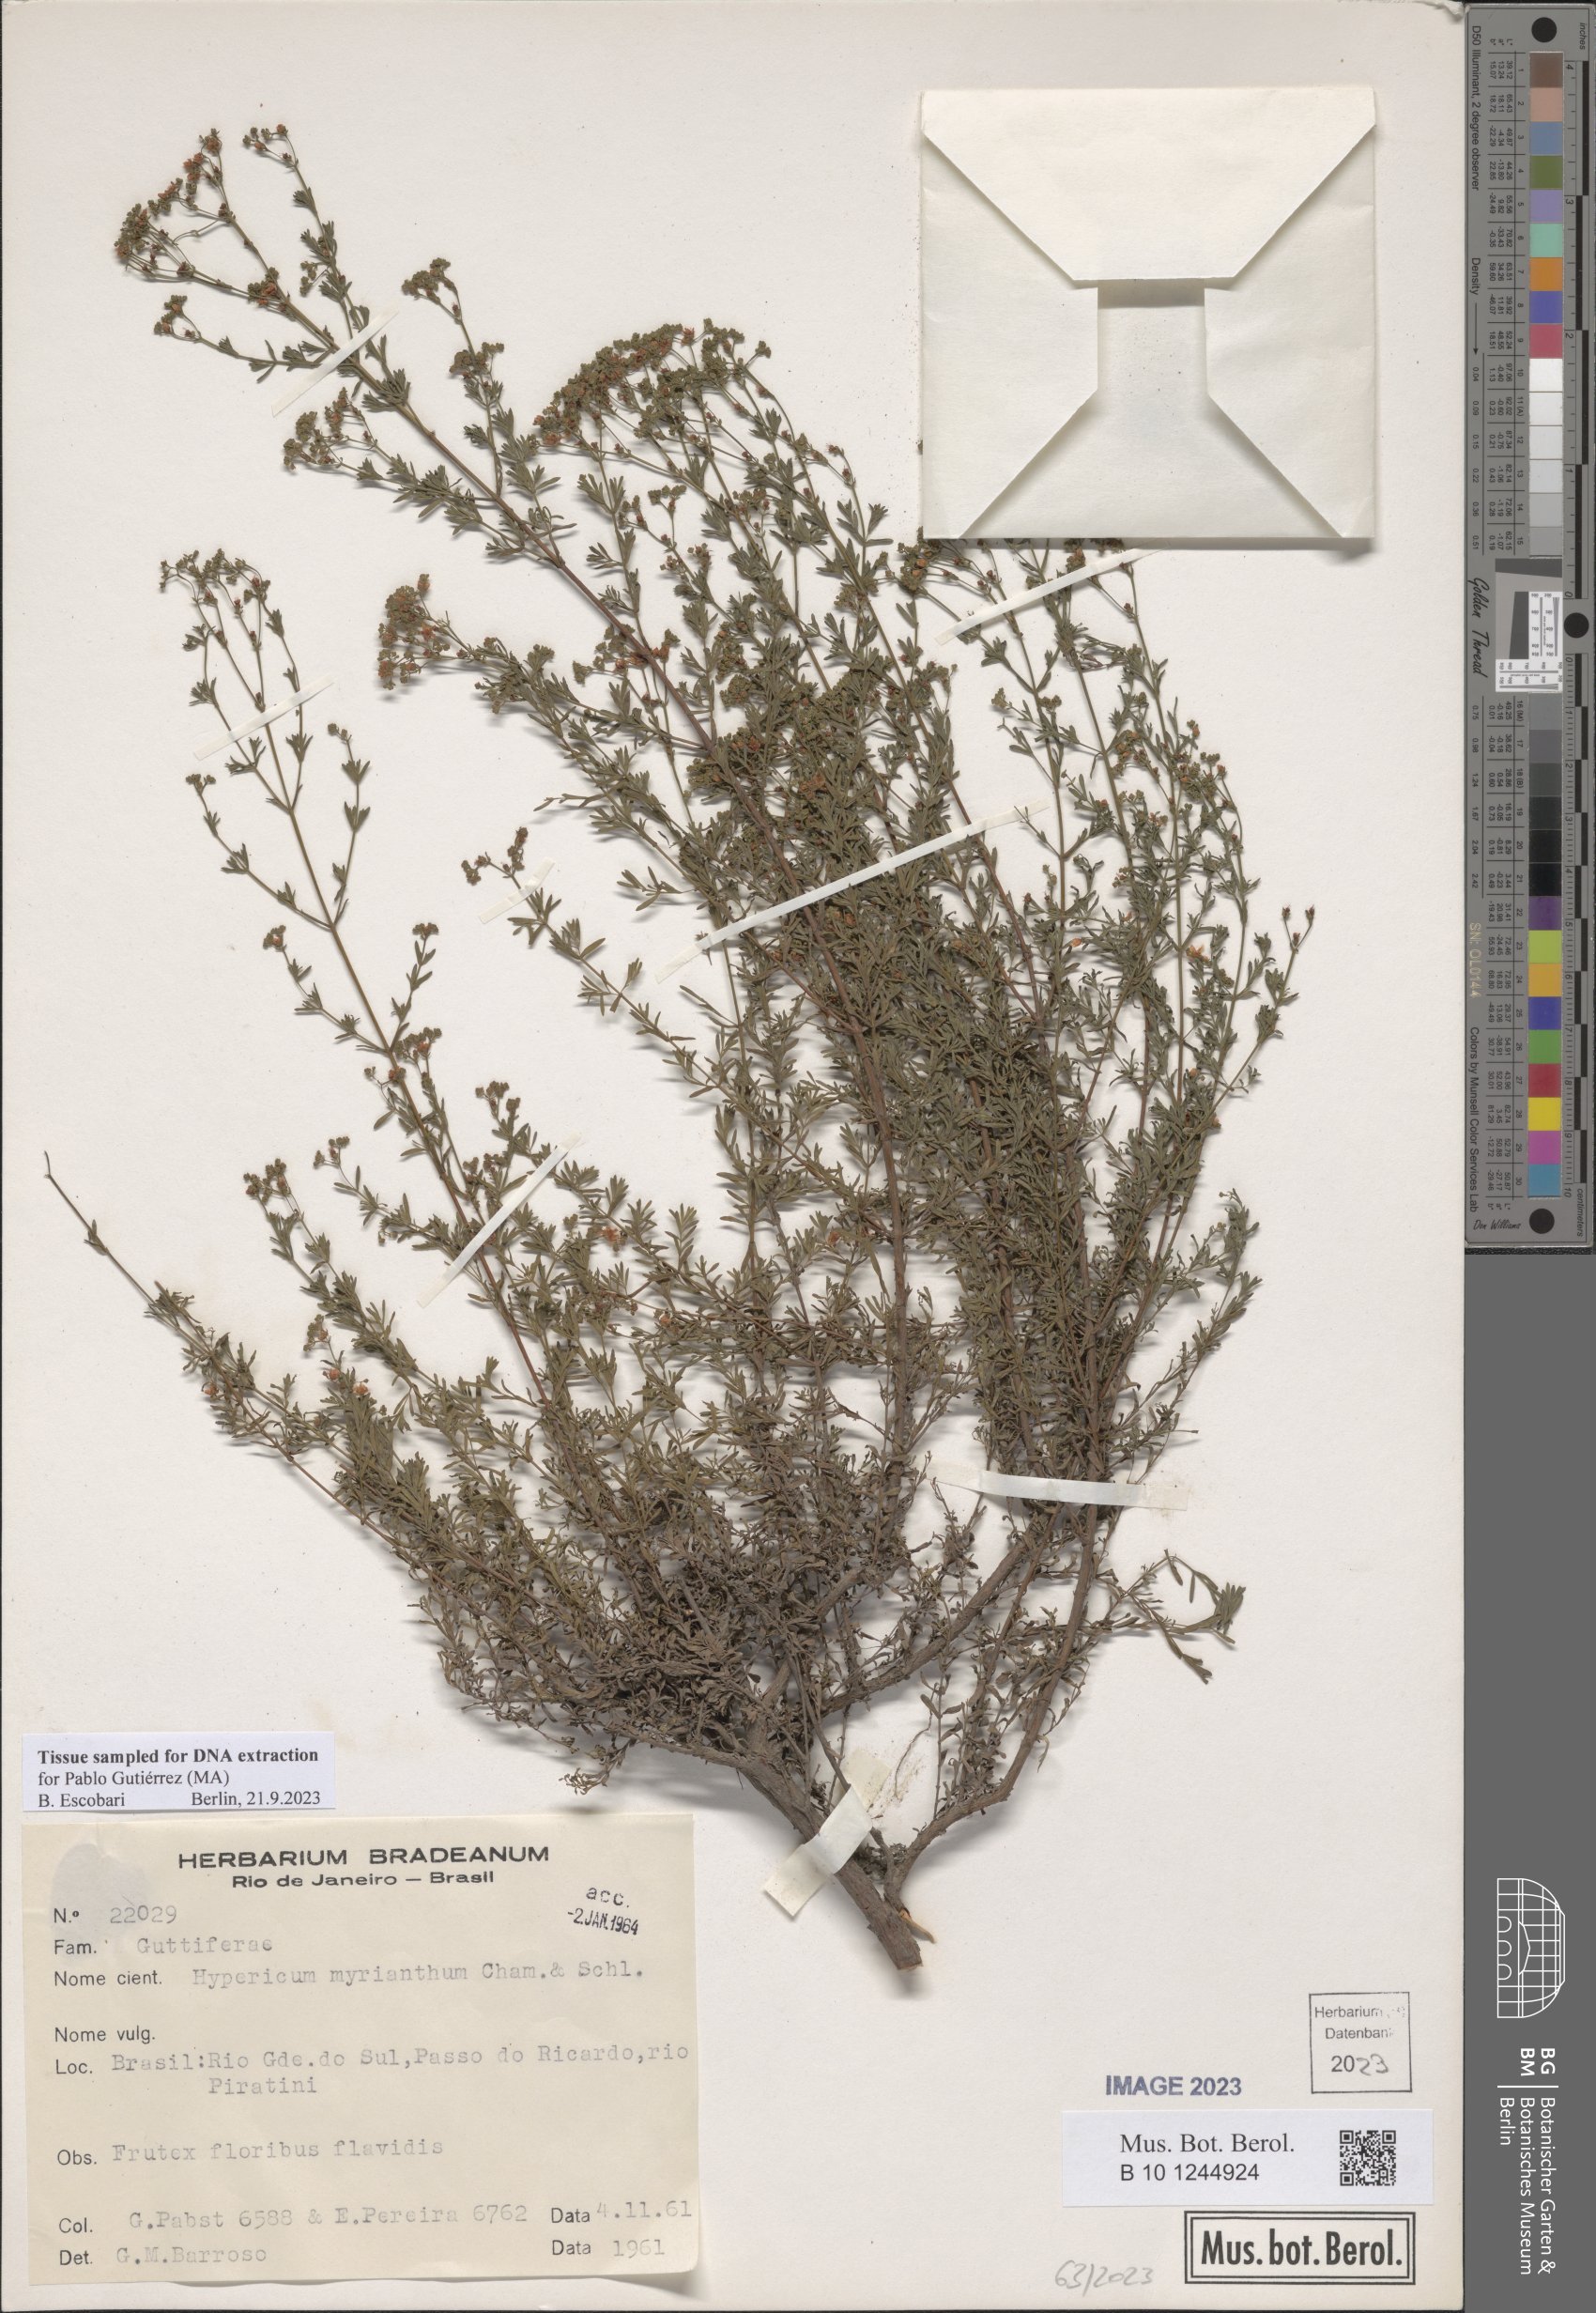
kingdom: Plantae
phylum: Tracheophyta
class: Magnoliopsida
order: Malpighiales
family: Hypericaceae
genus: Hypericum
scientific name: Hypericum myrianthum
